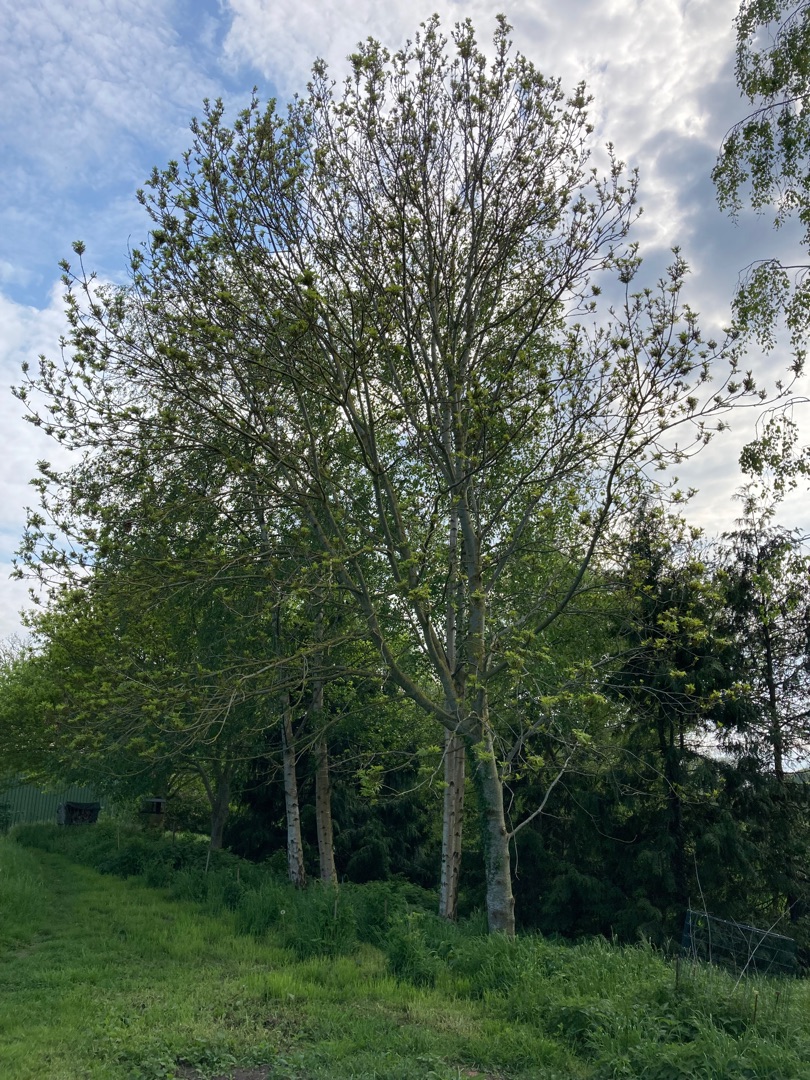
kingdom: Plantae
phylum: Tracheophyta
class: Magnoliopsida
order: Lamiales
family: Oleaceae
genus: Fraxinus
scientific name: Fraxinus excelsior
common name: Ask
